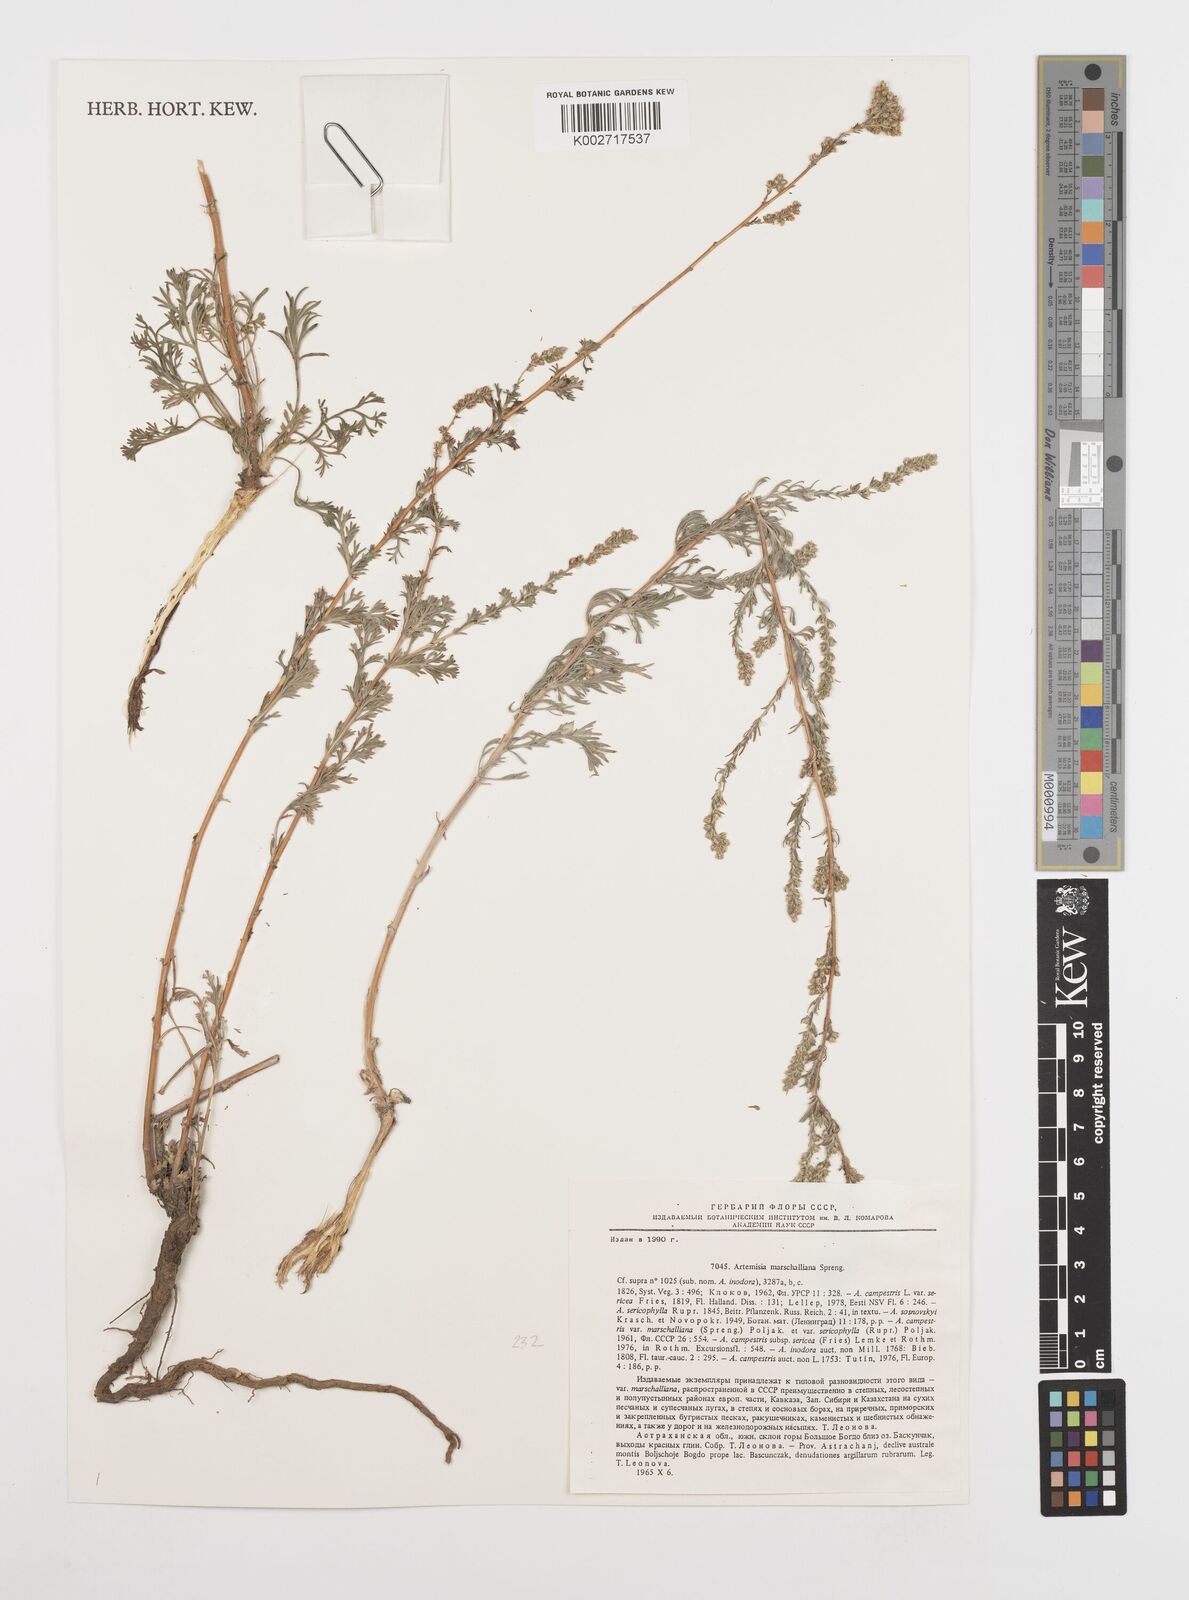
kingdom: Plantae
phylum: Tracheophyta
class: Magnoliopsida
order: Asterales
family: Asteraceae
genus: Artemisia
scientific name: Artemisia marschalliana
